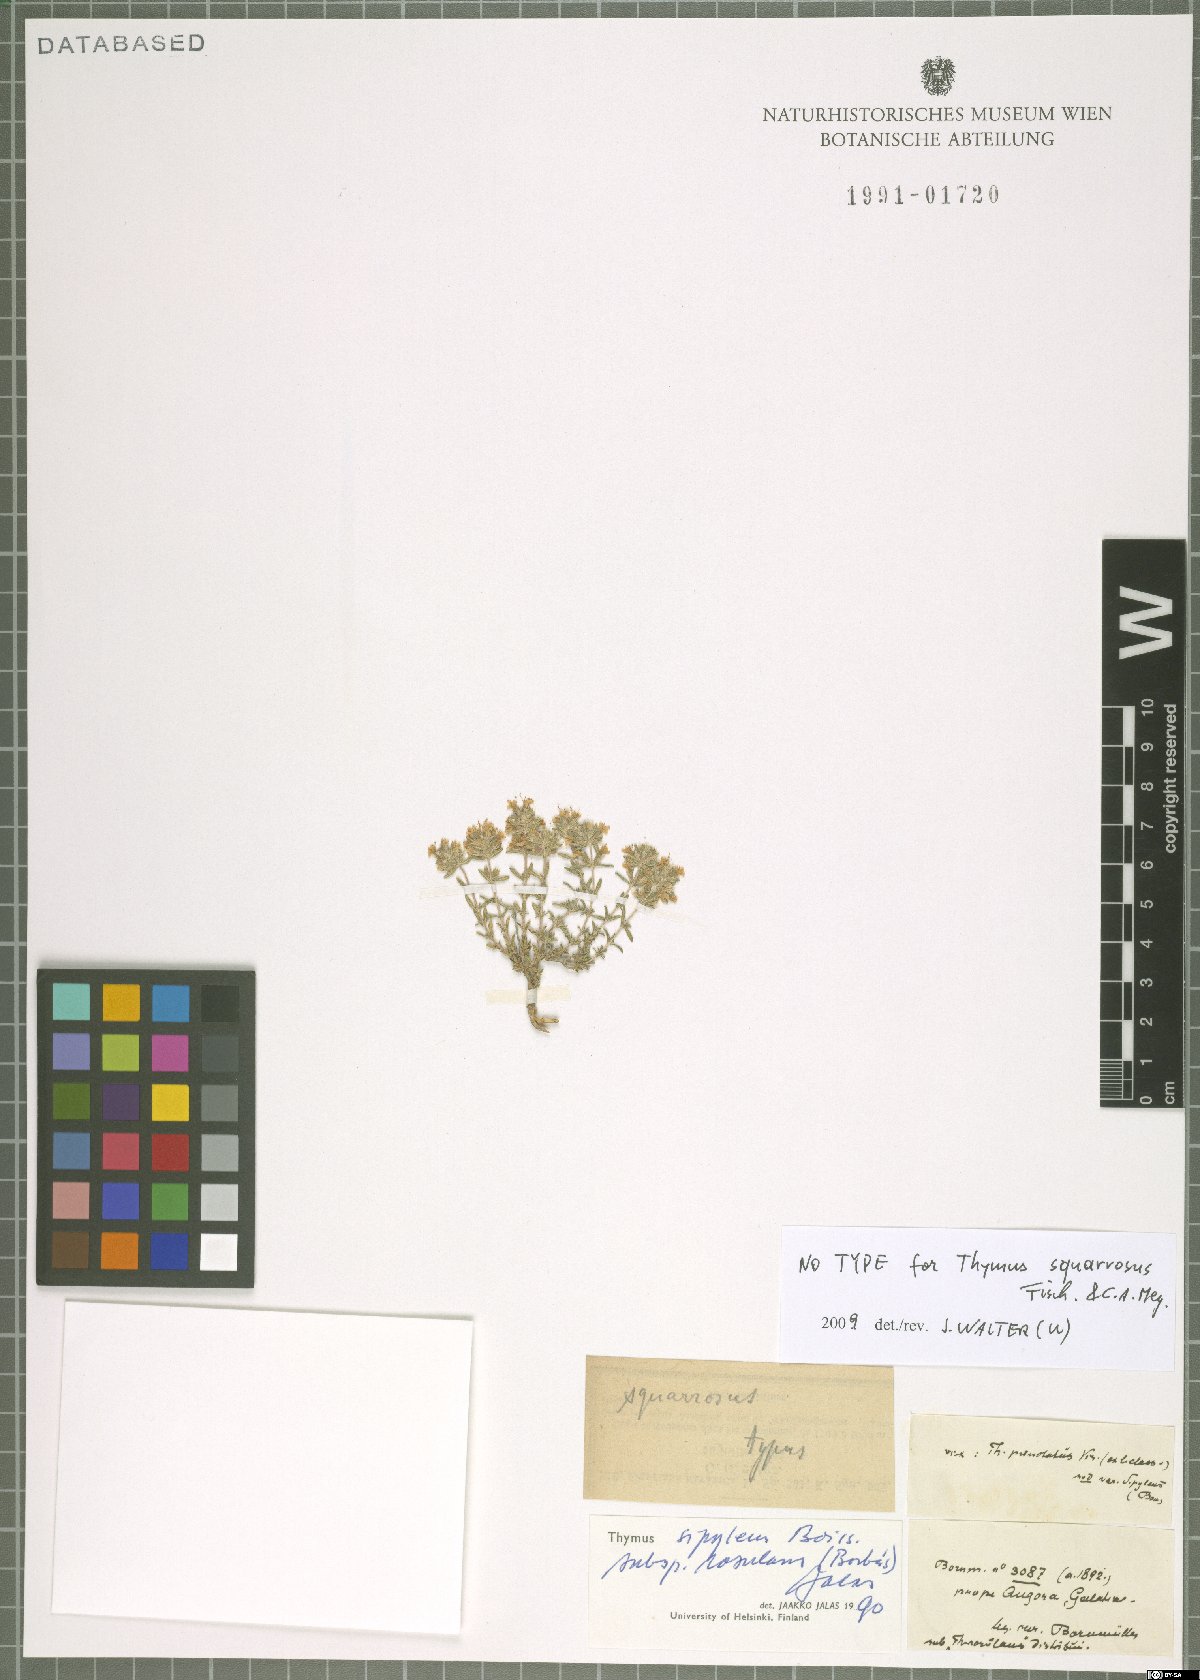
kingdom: Plantae
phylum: Tracheophyta
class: Magnoliopsida
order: Lamiales
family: Lamiaceae
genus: Thymus
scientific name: Thymus sipyleus
